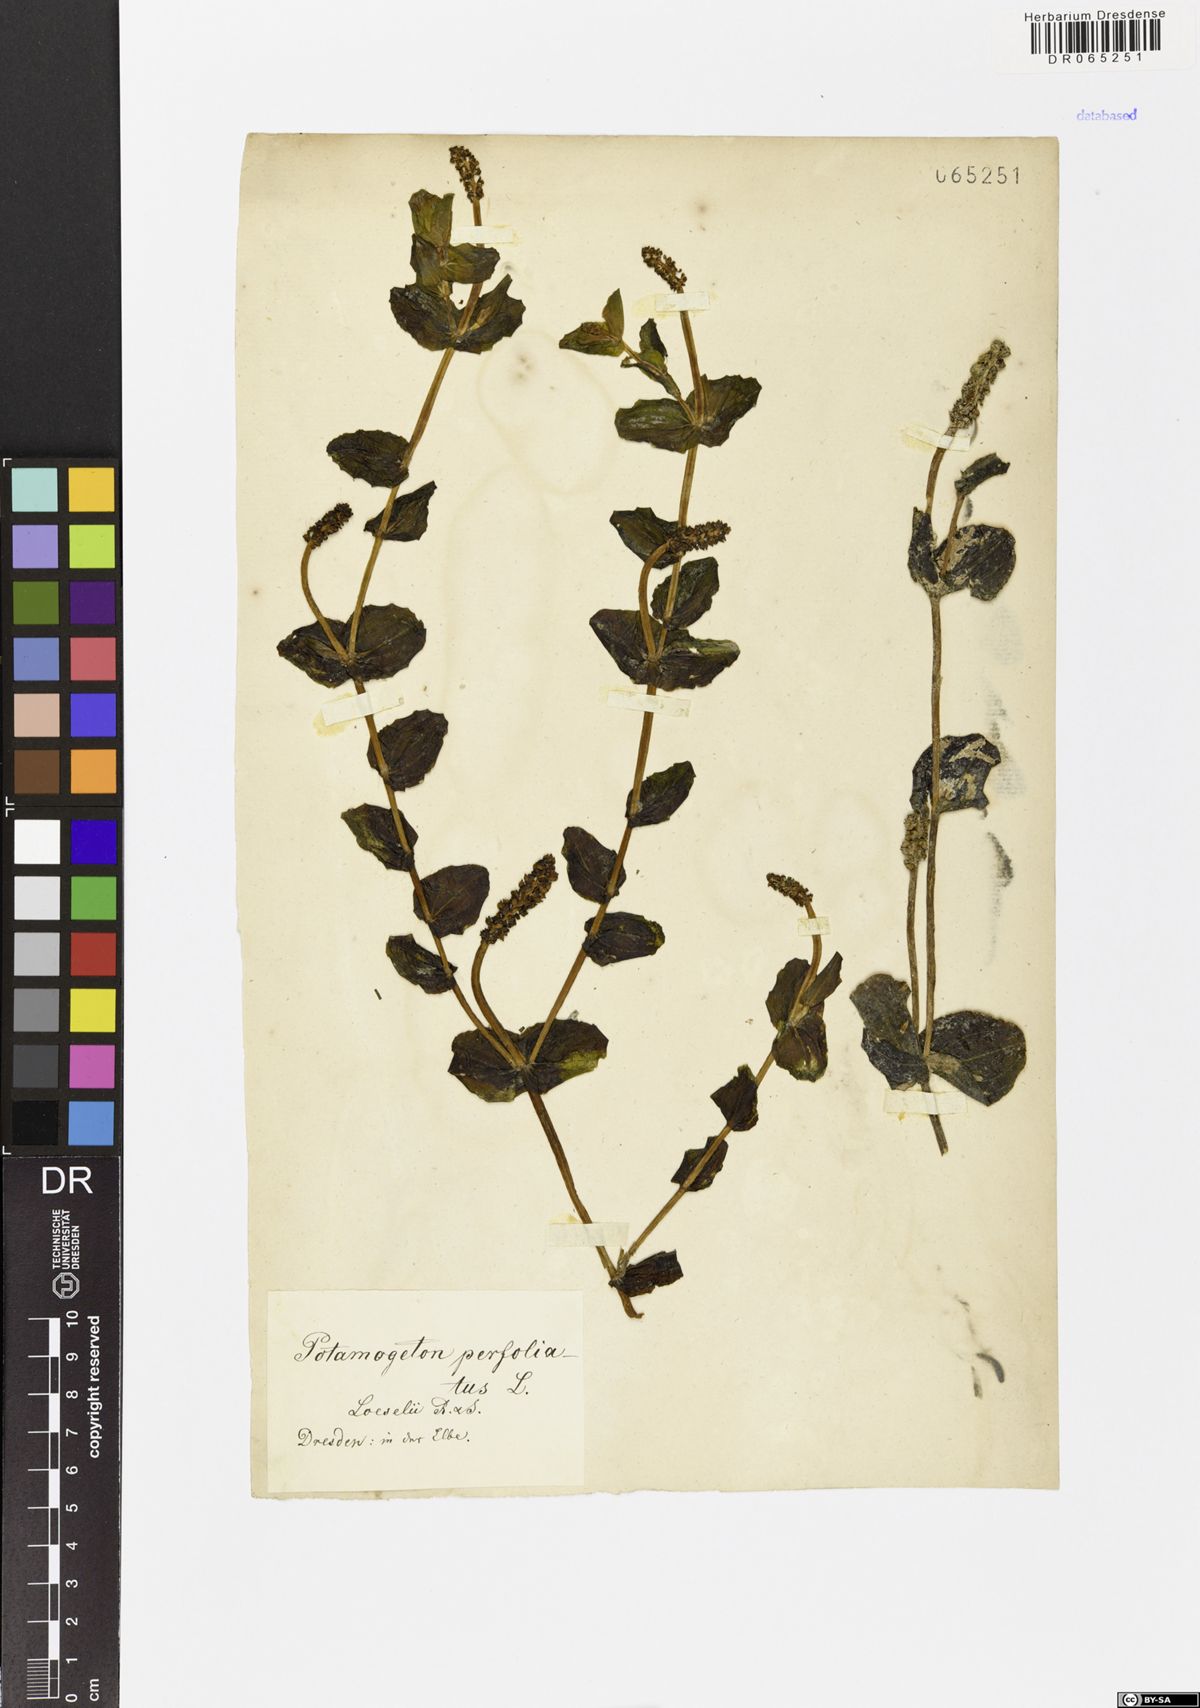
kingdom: Plantae
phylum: Tracheophyta
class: Liliopsida
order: Alismatales
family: Potamogetonaceae
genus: Potamogeton
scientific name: Potamogeton perfoliatus
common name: Perfoliate pondweed
